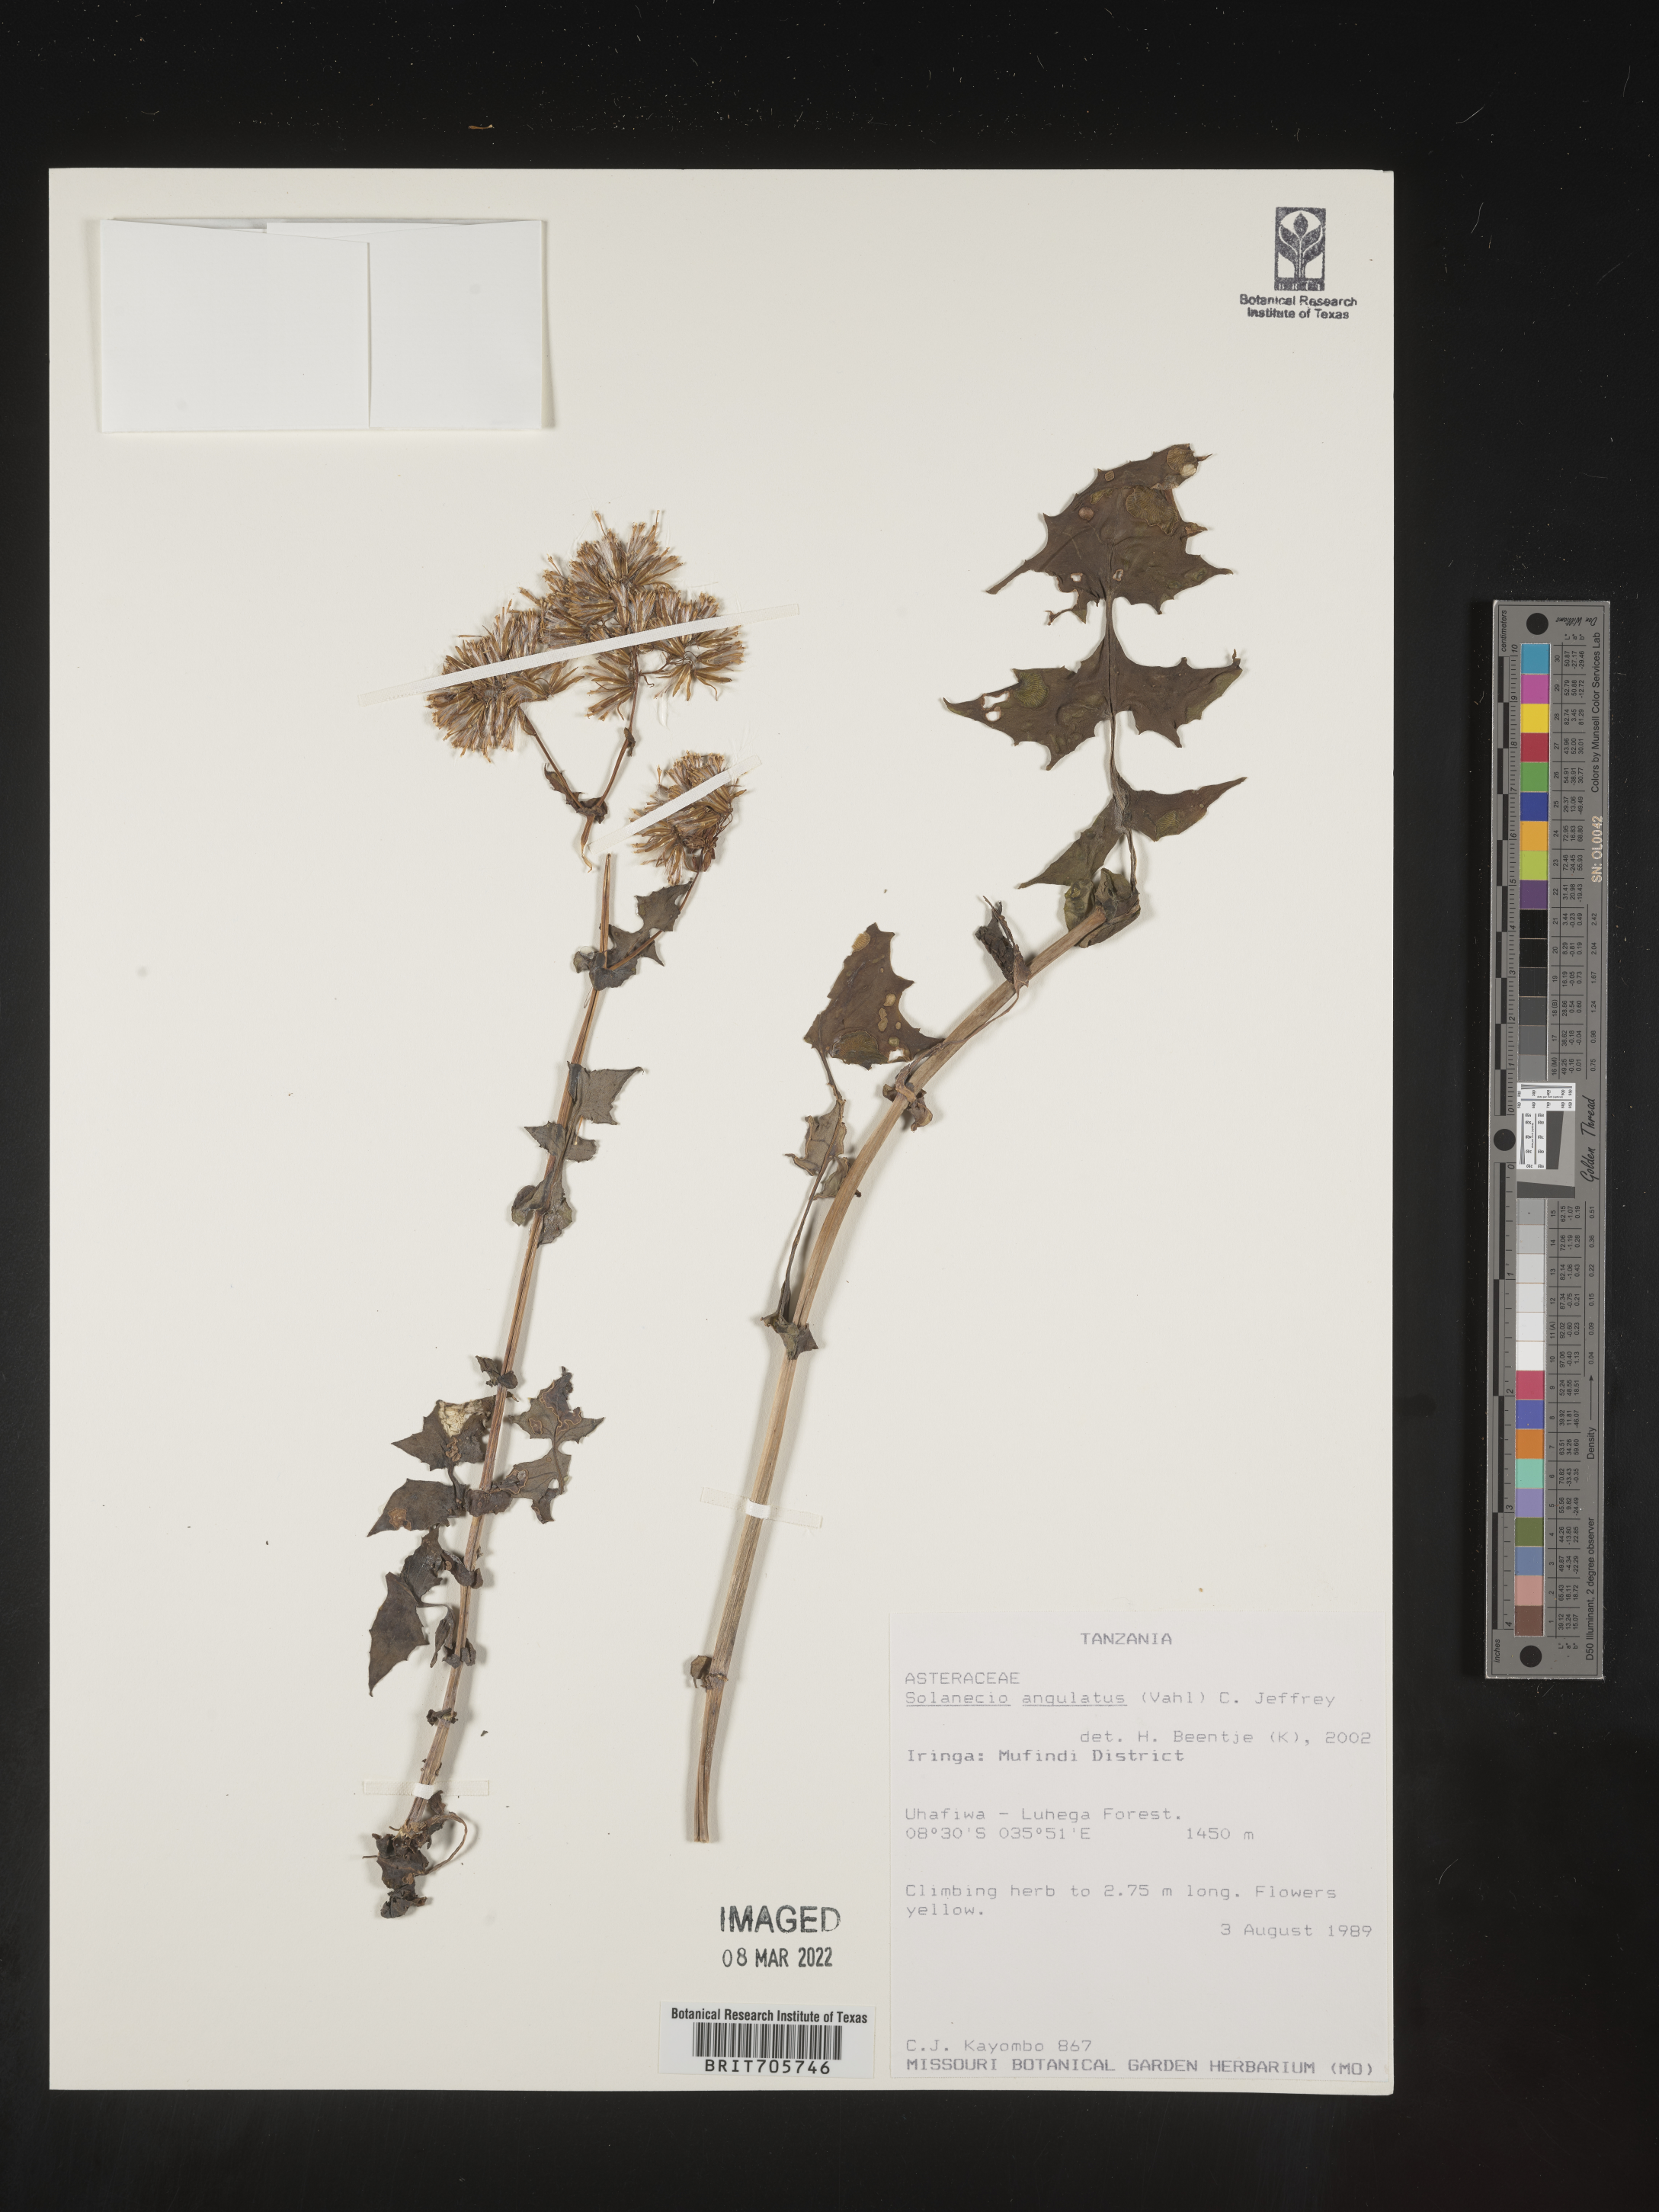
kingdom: Plantae
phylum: Tracheophyta
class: Magnoliopsida
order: Asterales
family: Asteraceae
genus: Solanecio
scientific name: Solanecio
